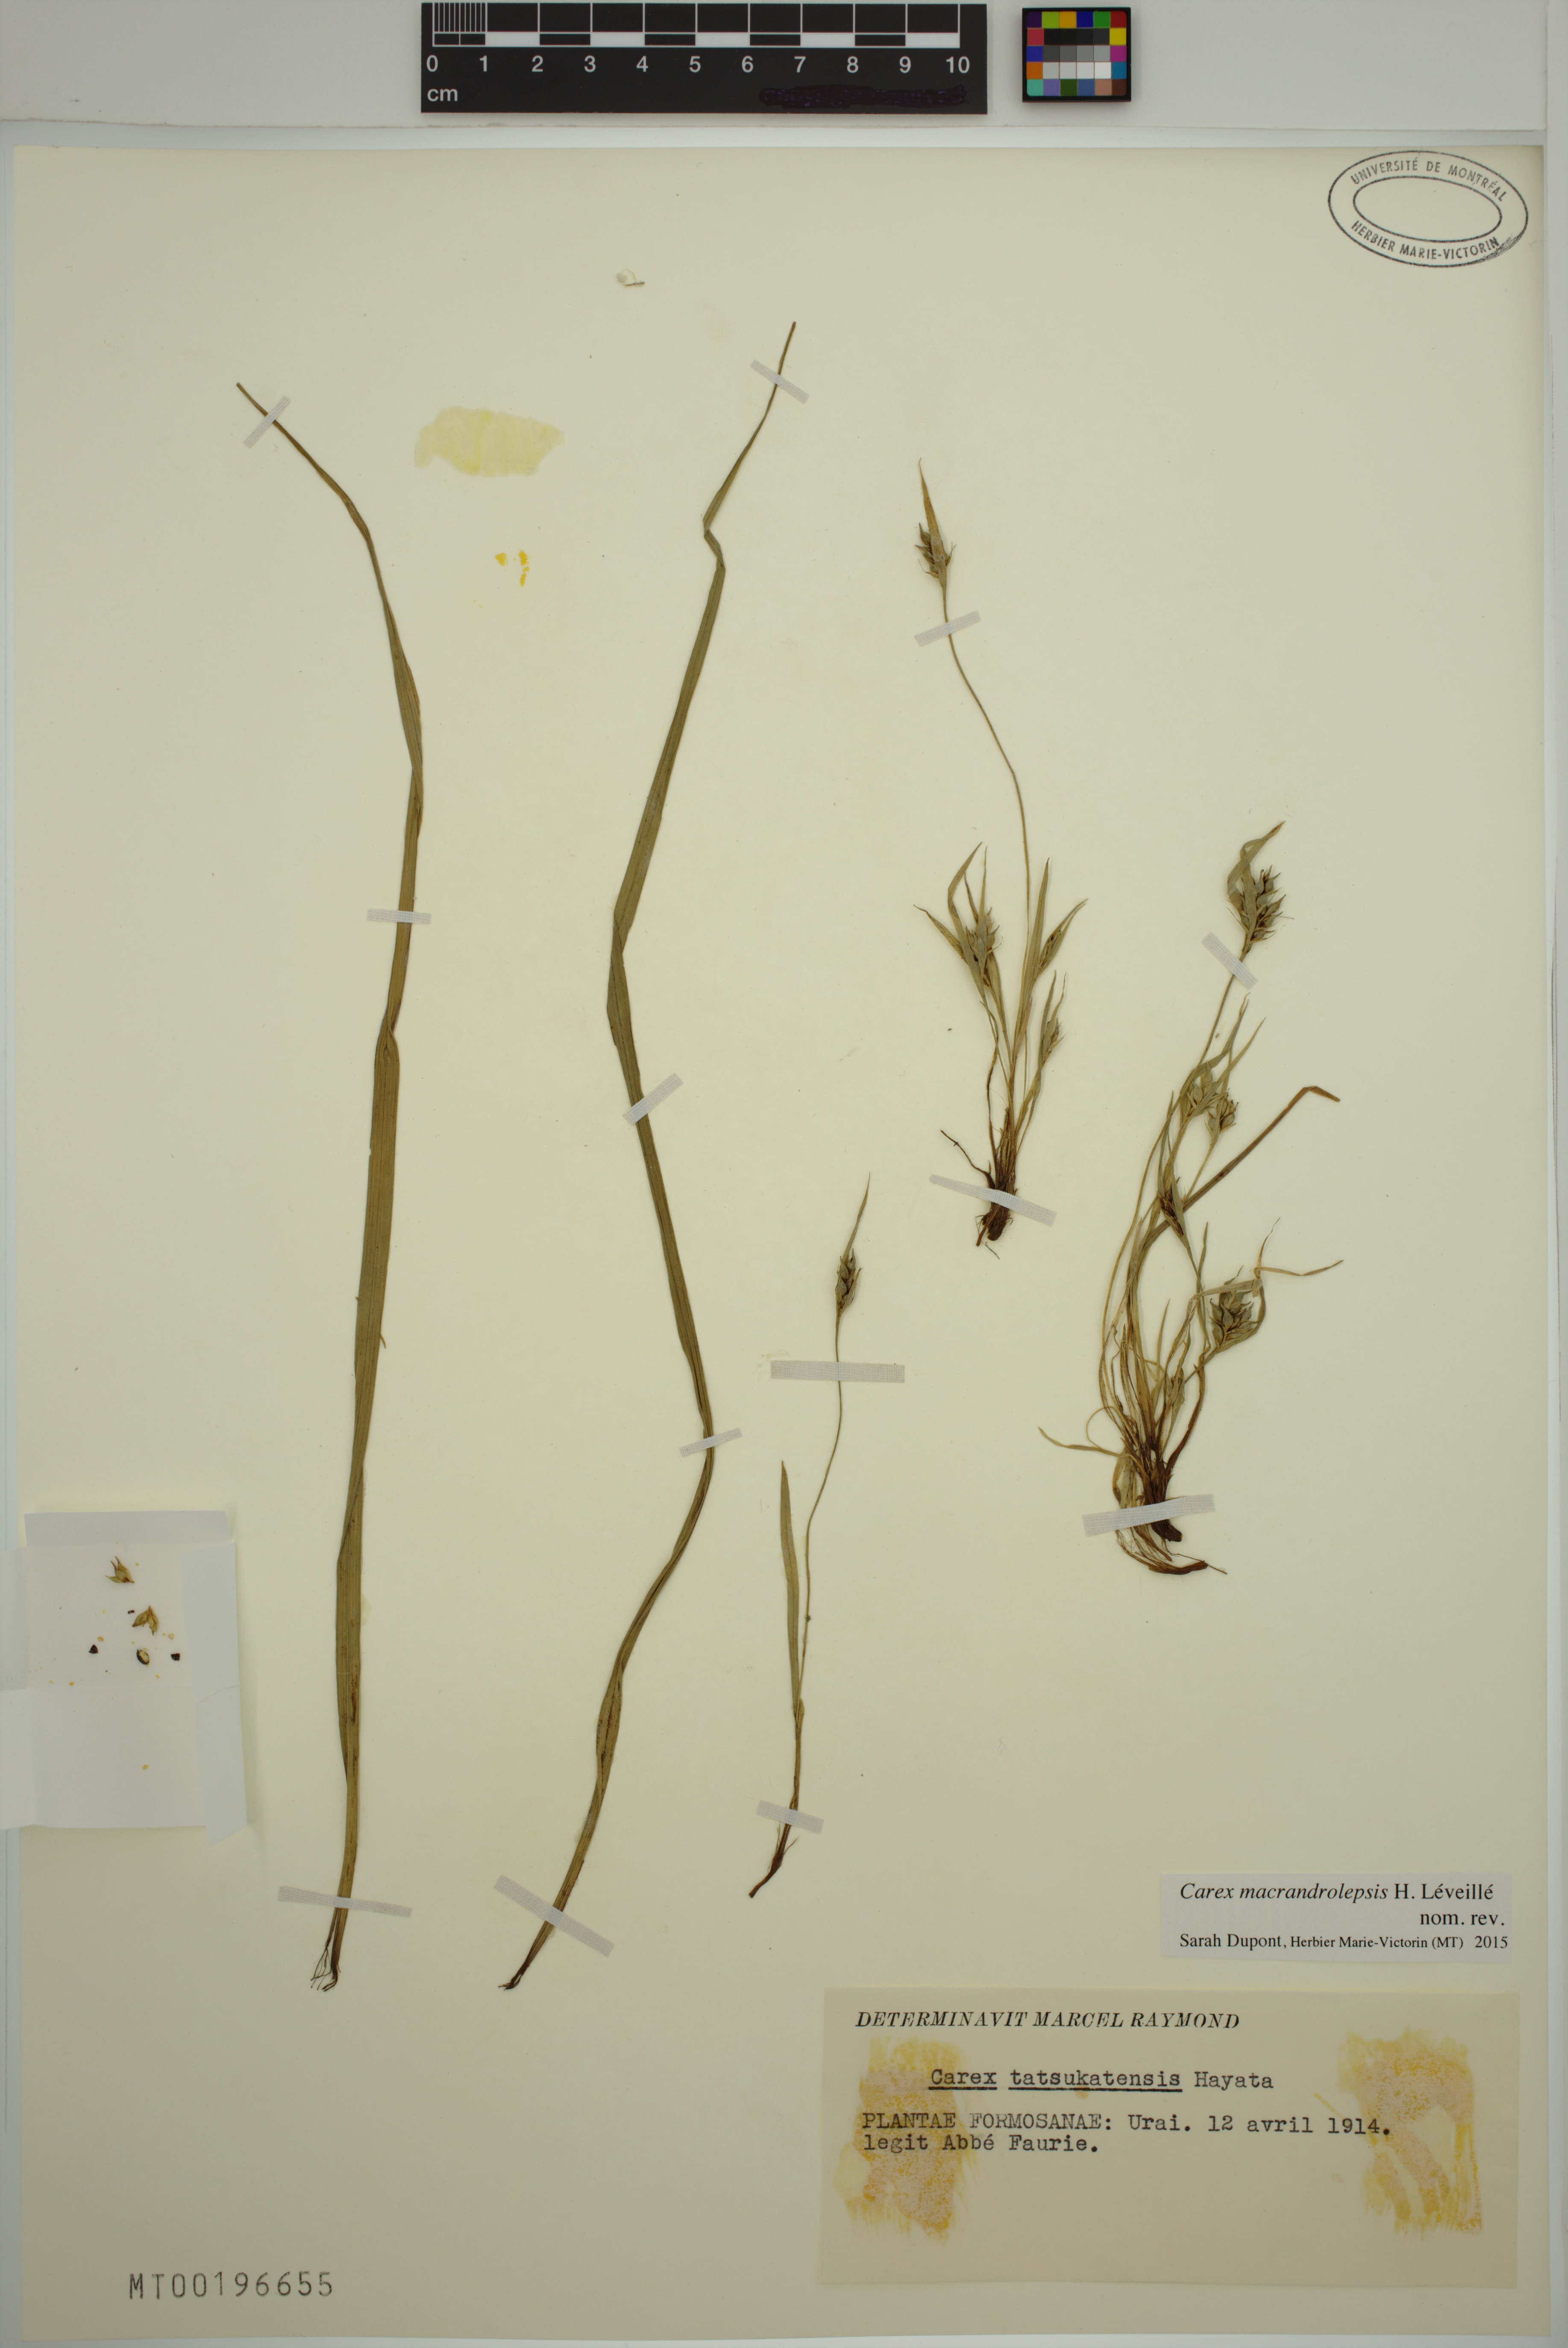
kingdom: Plantae
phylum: Tracheophyta
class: Liliopsida
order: Poales
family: Cyperaceae
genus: Carex
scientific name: Carex blinii
